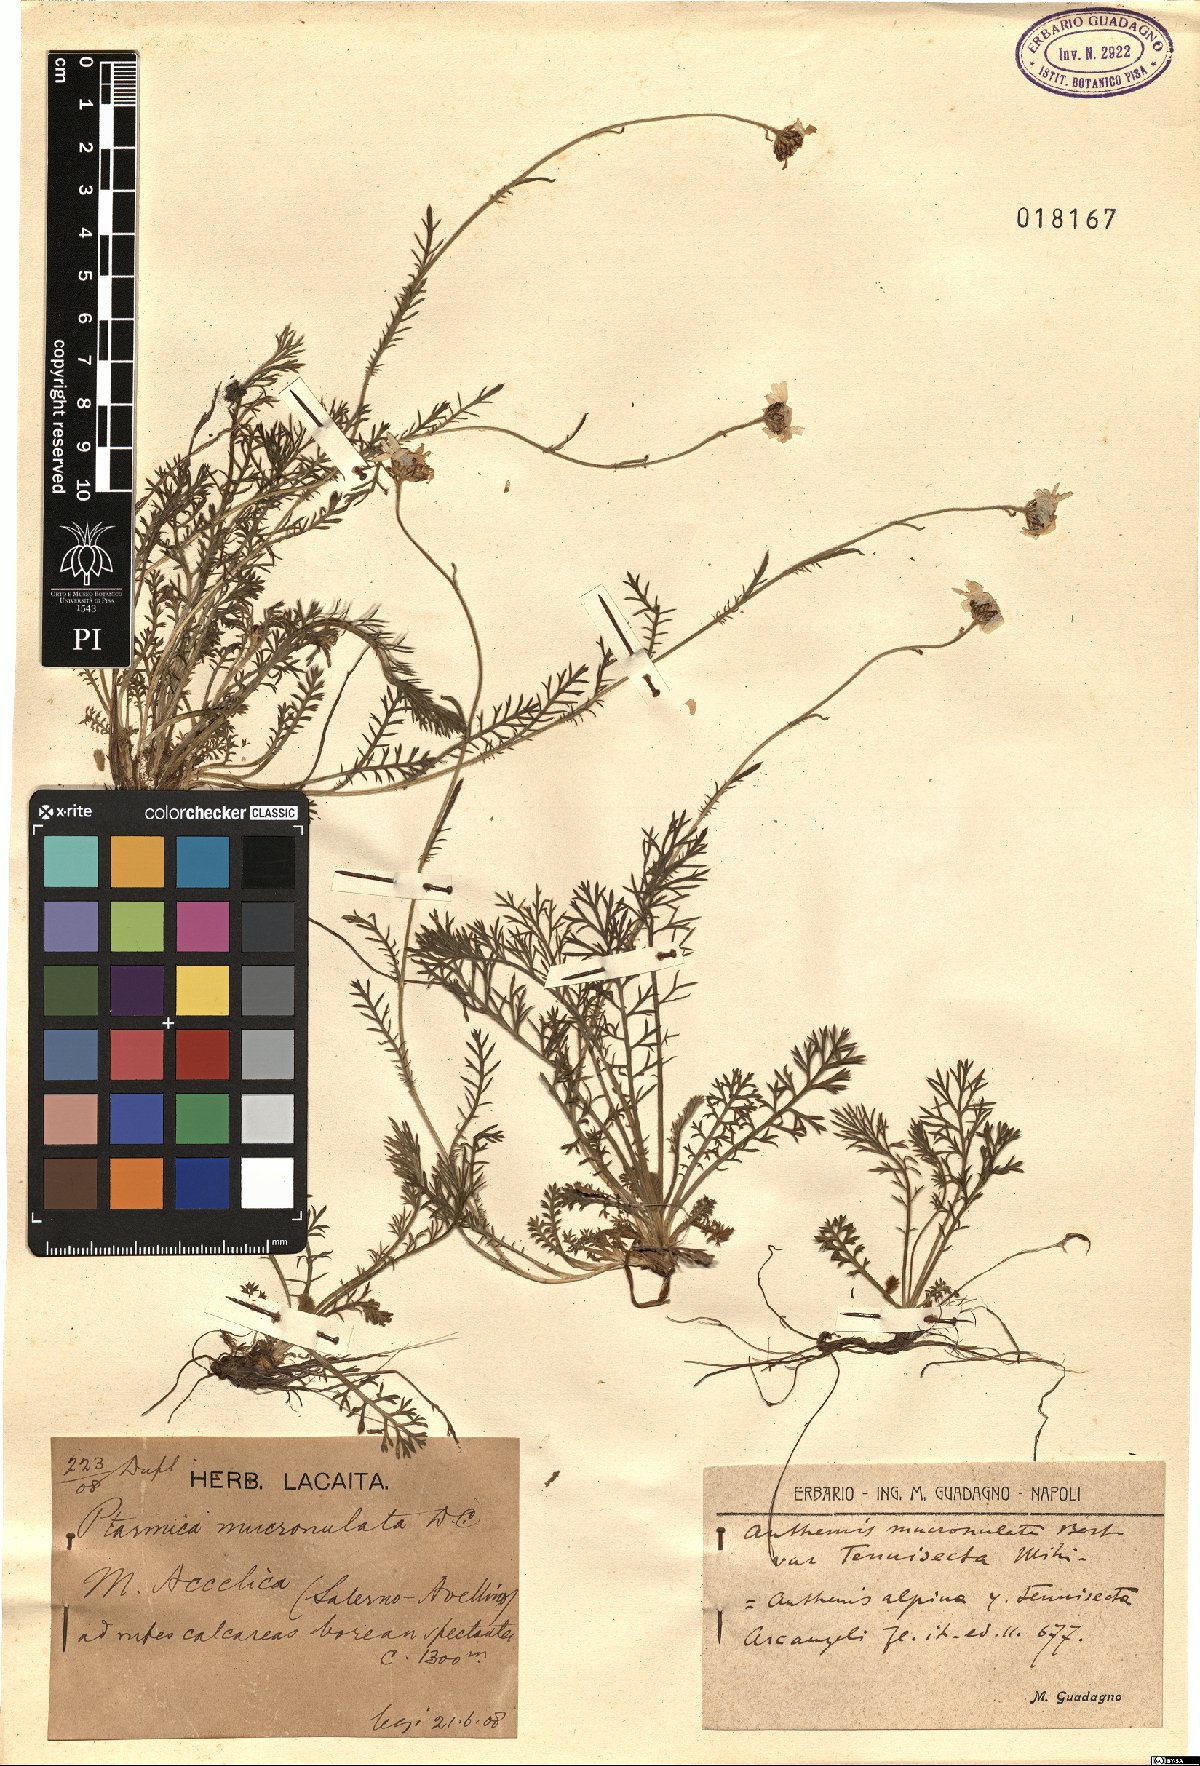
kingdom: Plantae
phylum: Tracheophyta
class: Magnoliopsida
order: Asterales
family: Asteraceae
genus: Achillea
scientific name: Achillea barrelieri
